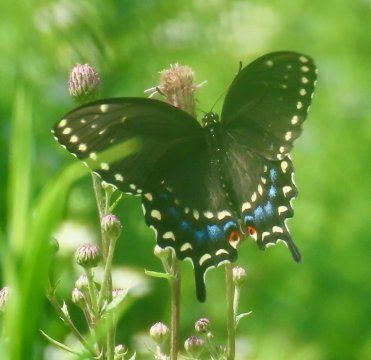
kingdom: Animalia
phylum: Arthropoda
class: Insecta
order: Lepidoptera
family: Papilionidae
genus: Papilio
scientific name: Papilio polyxenes
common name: Black Swallowtail
